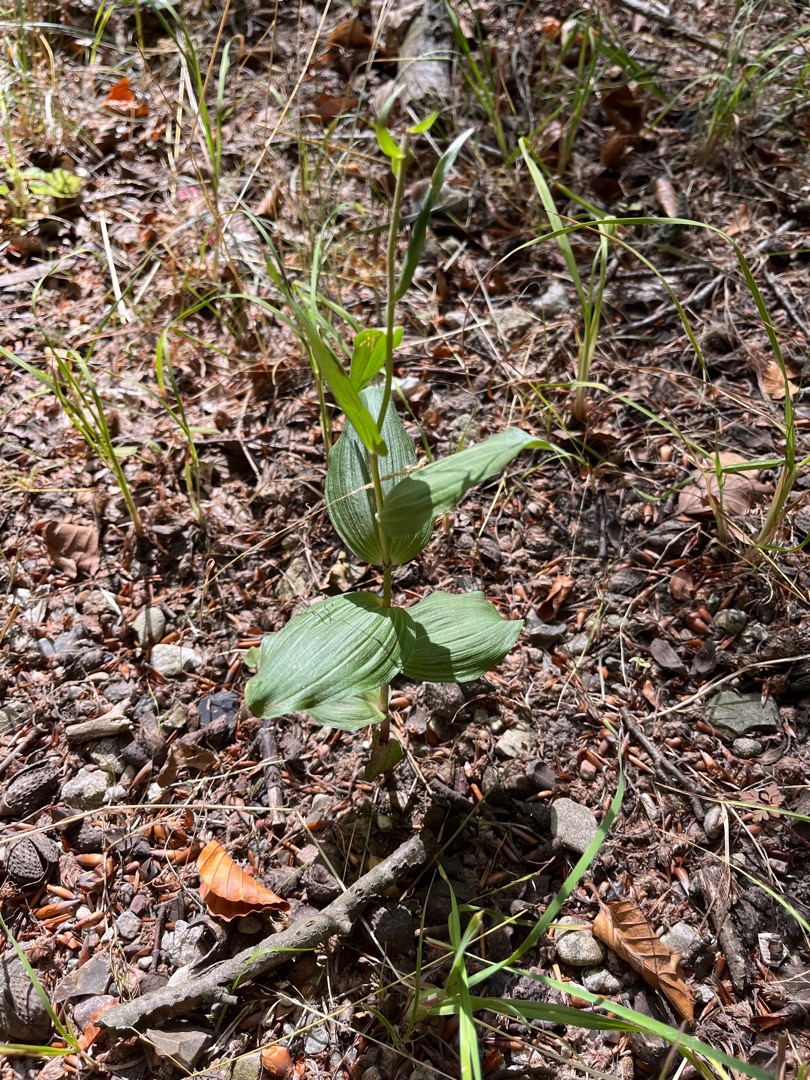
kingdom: Plantae
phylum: Tracheophyta
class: Liliopsida
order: Asparagales
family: Orchidaceae
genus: Epipactis
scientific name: Epipactis helleborine
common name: Skov-hullæbe
